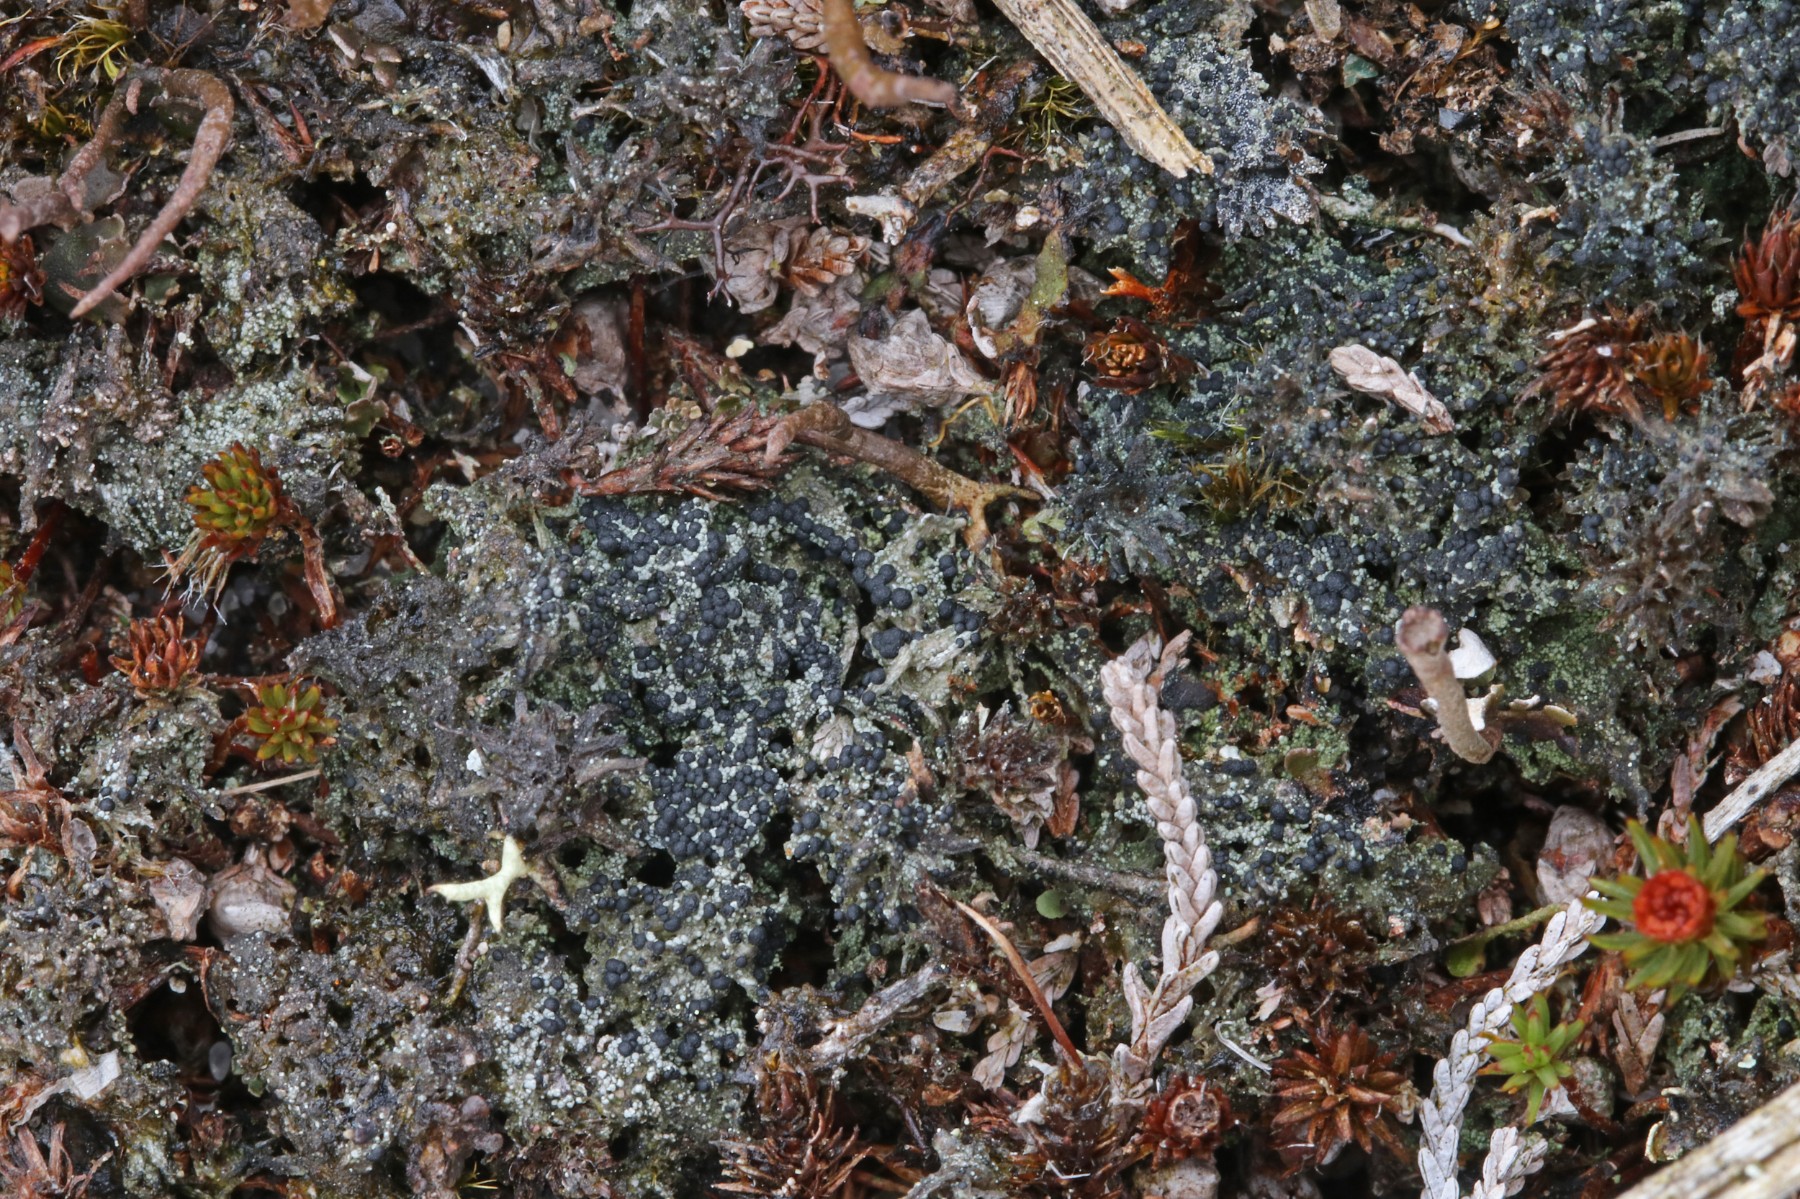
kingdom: Fungi
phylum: Ascomycota
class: Lecanoromycetes
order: Lecanorales
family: Byssolomataceae
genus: Micarea
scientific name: Micarea lignaria
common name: tørve-knaplav
